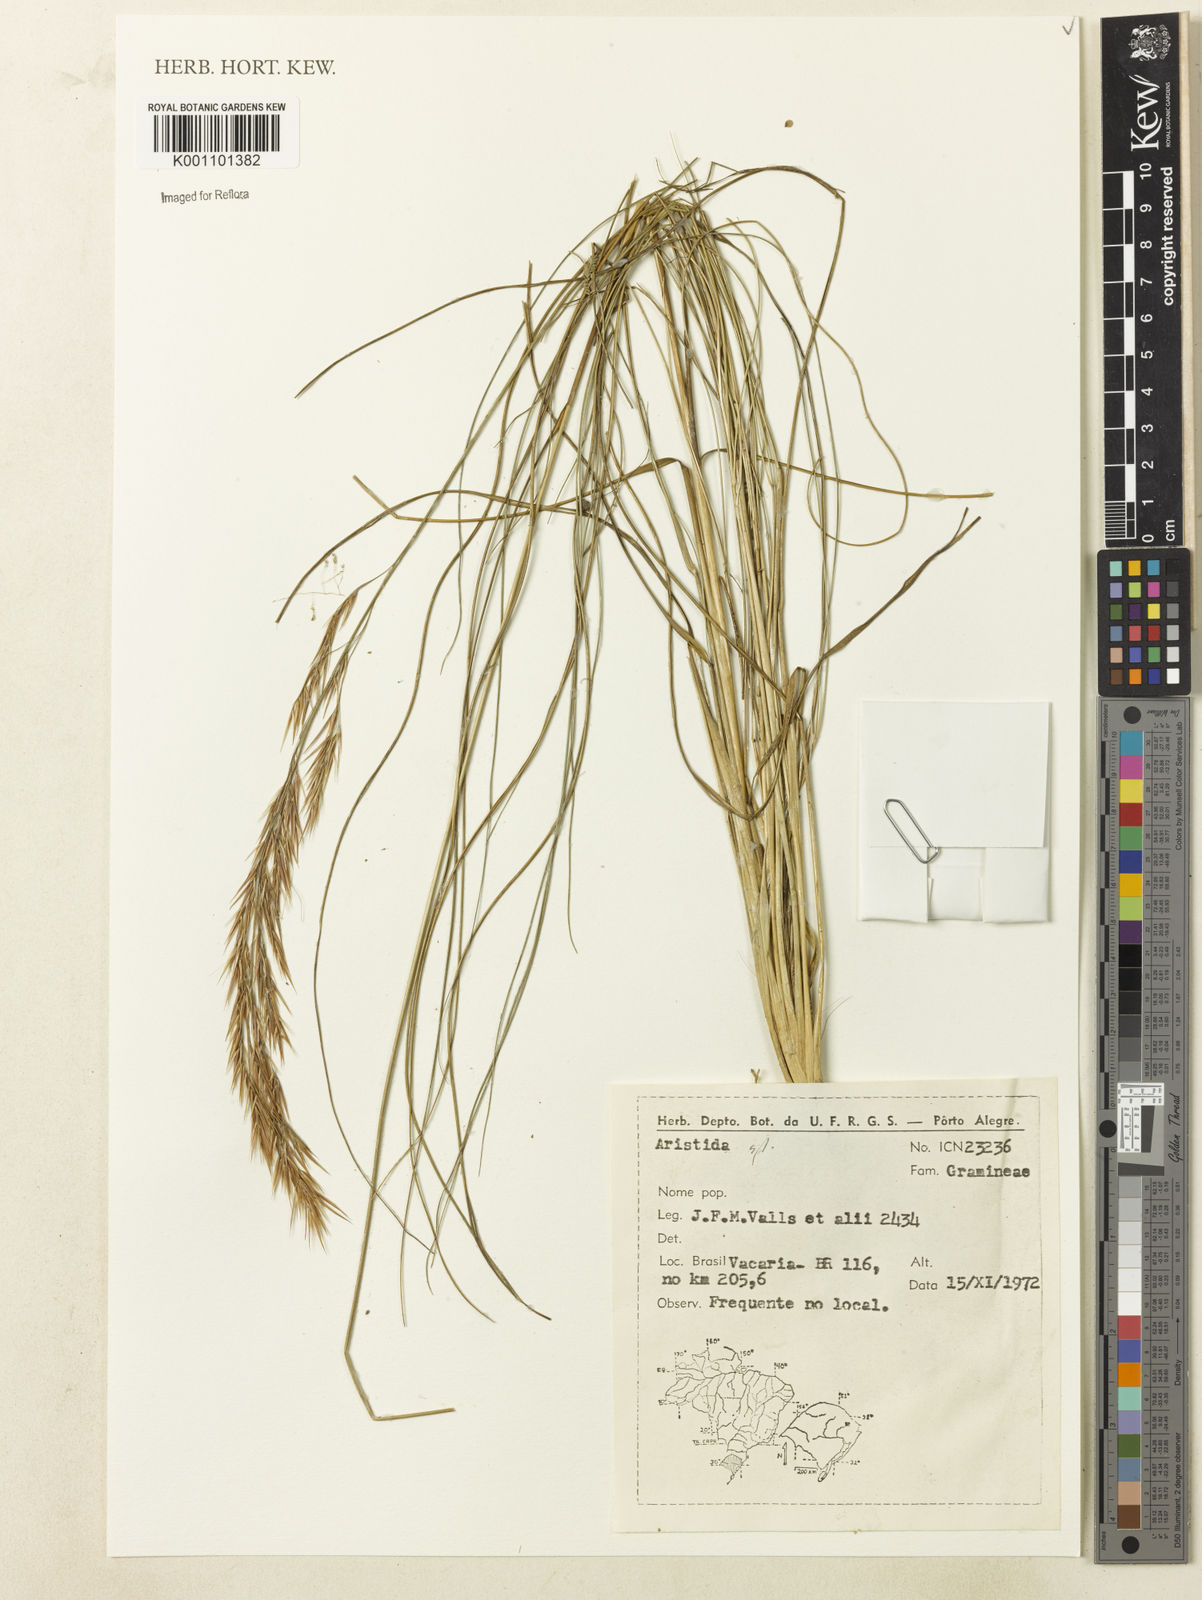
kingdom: Plantae
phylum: Tracheophyta
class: Liliopsida
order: Poales
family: Poaceae
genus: Aristida
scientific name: Aristida
